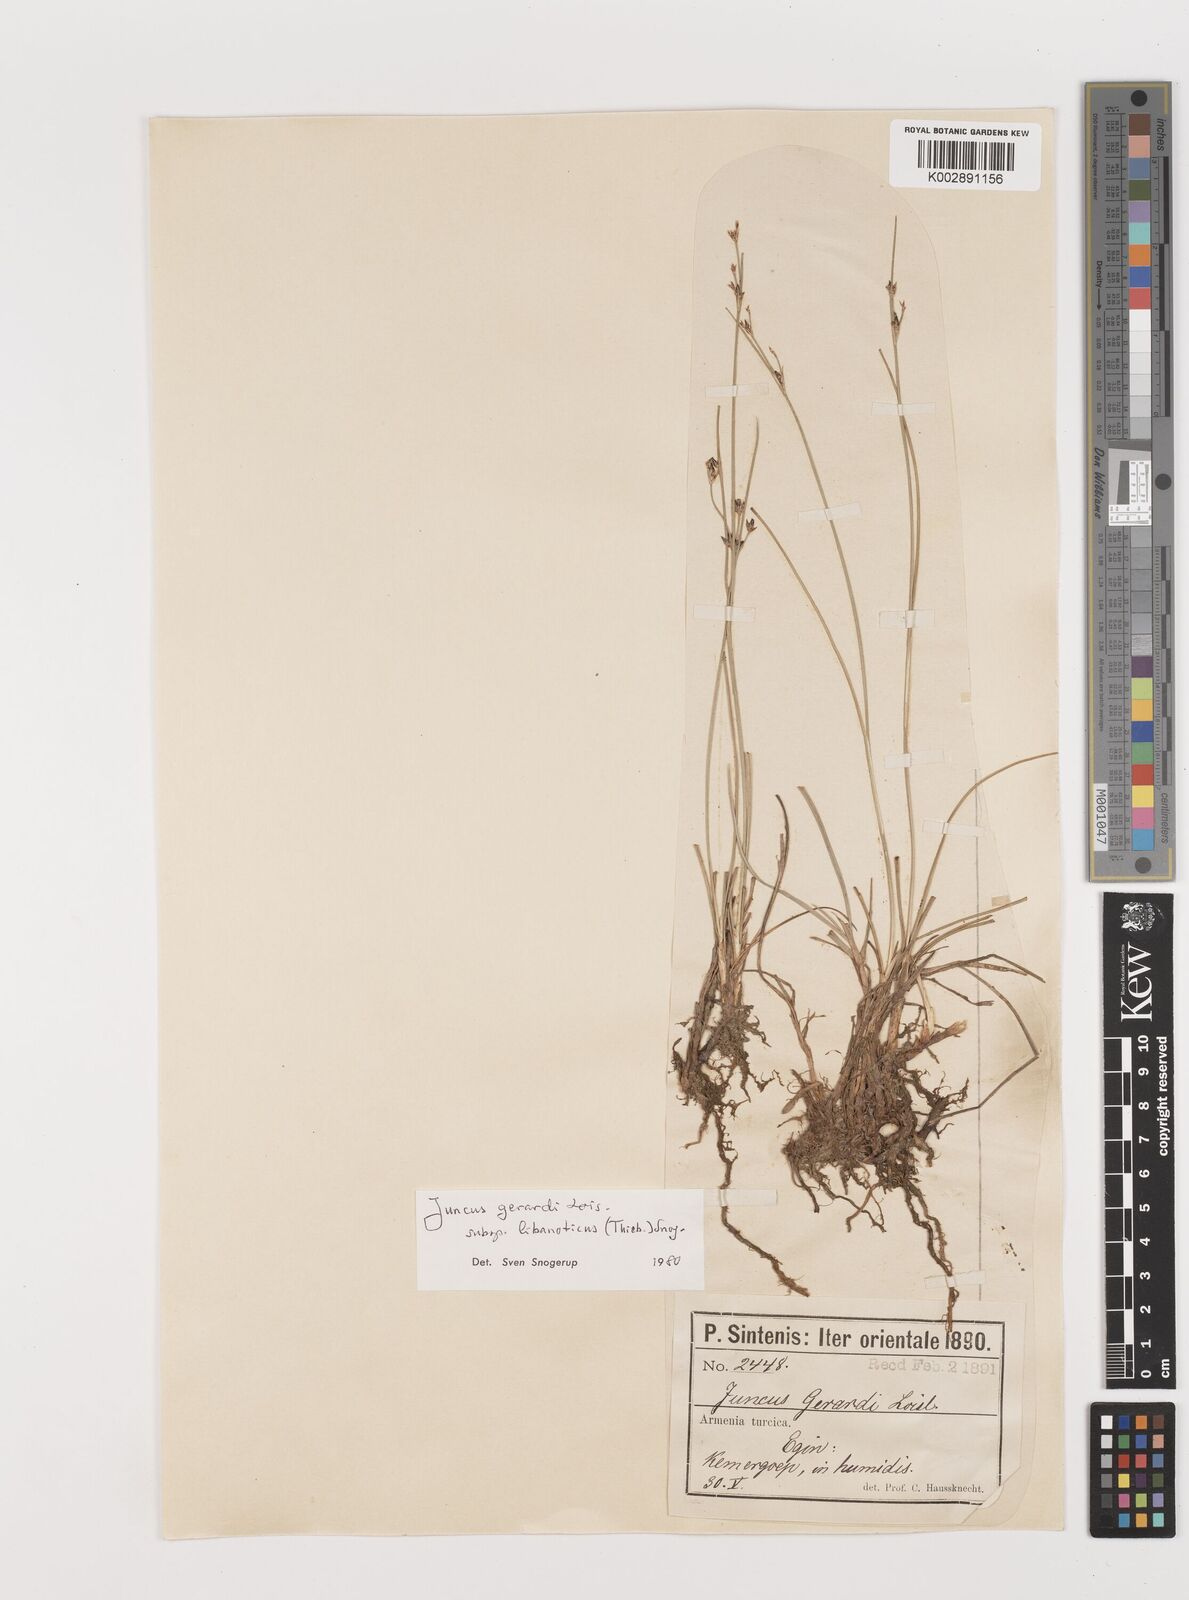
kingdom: Plantae
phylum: Tracheophyta
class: Liliopsida
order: Poales
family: Juncaceae
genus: Juncus
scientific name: Juncus persicus
